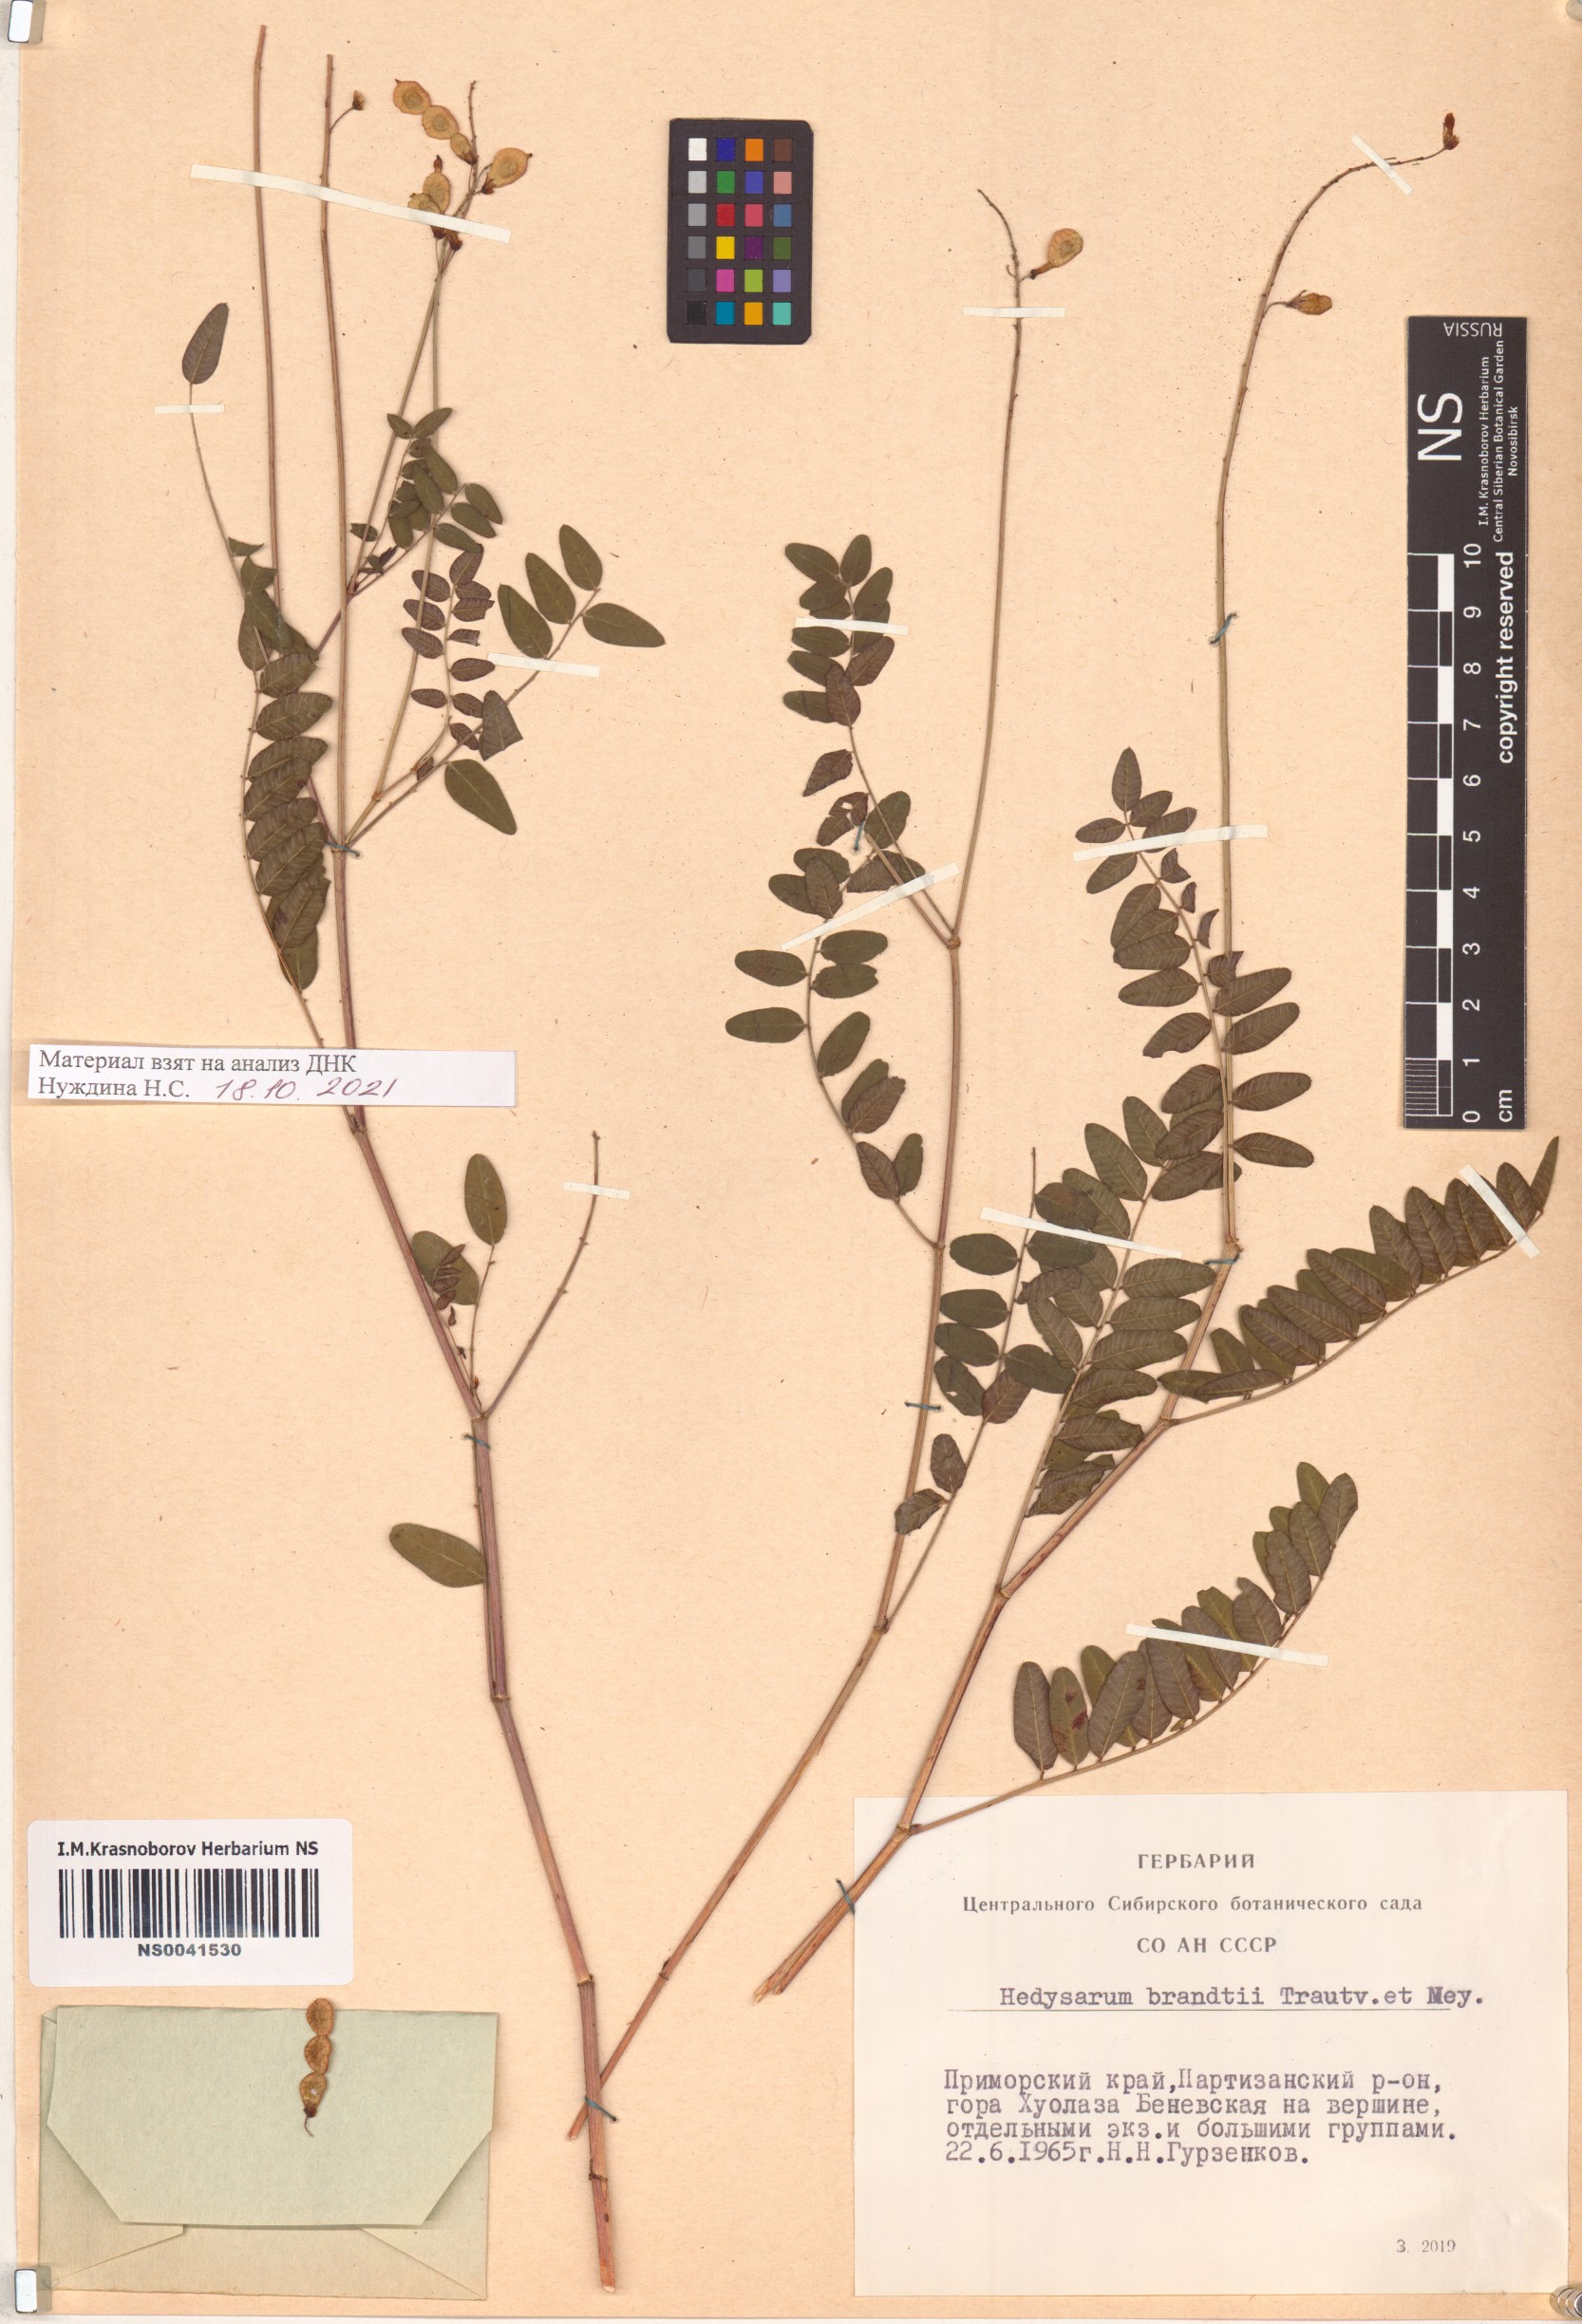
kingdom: Plantae
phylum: Tracheophyta
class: Magnoliopsida
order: Fabales
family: Fabaceae
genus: Hedysarum
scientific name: Hedysarum branthii
